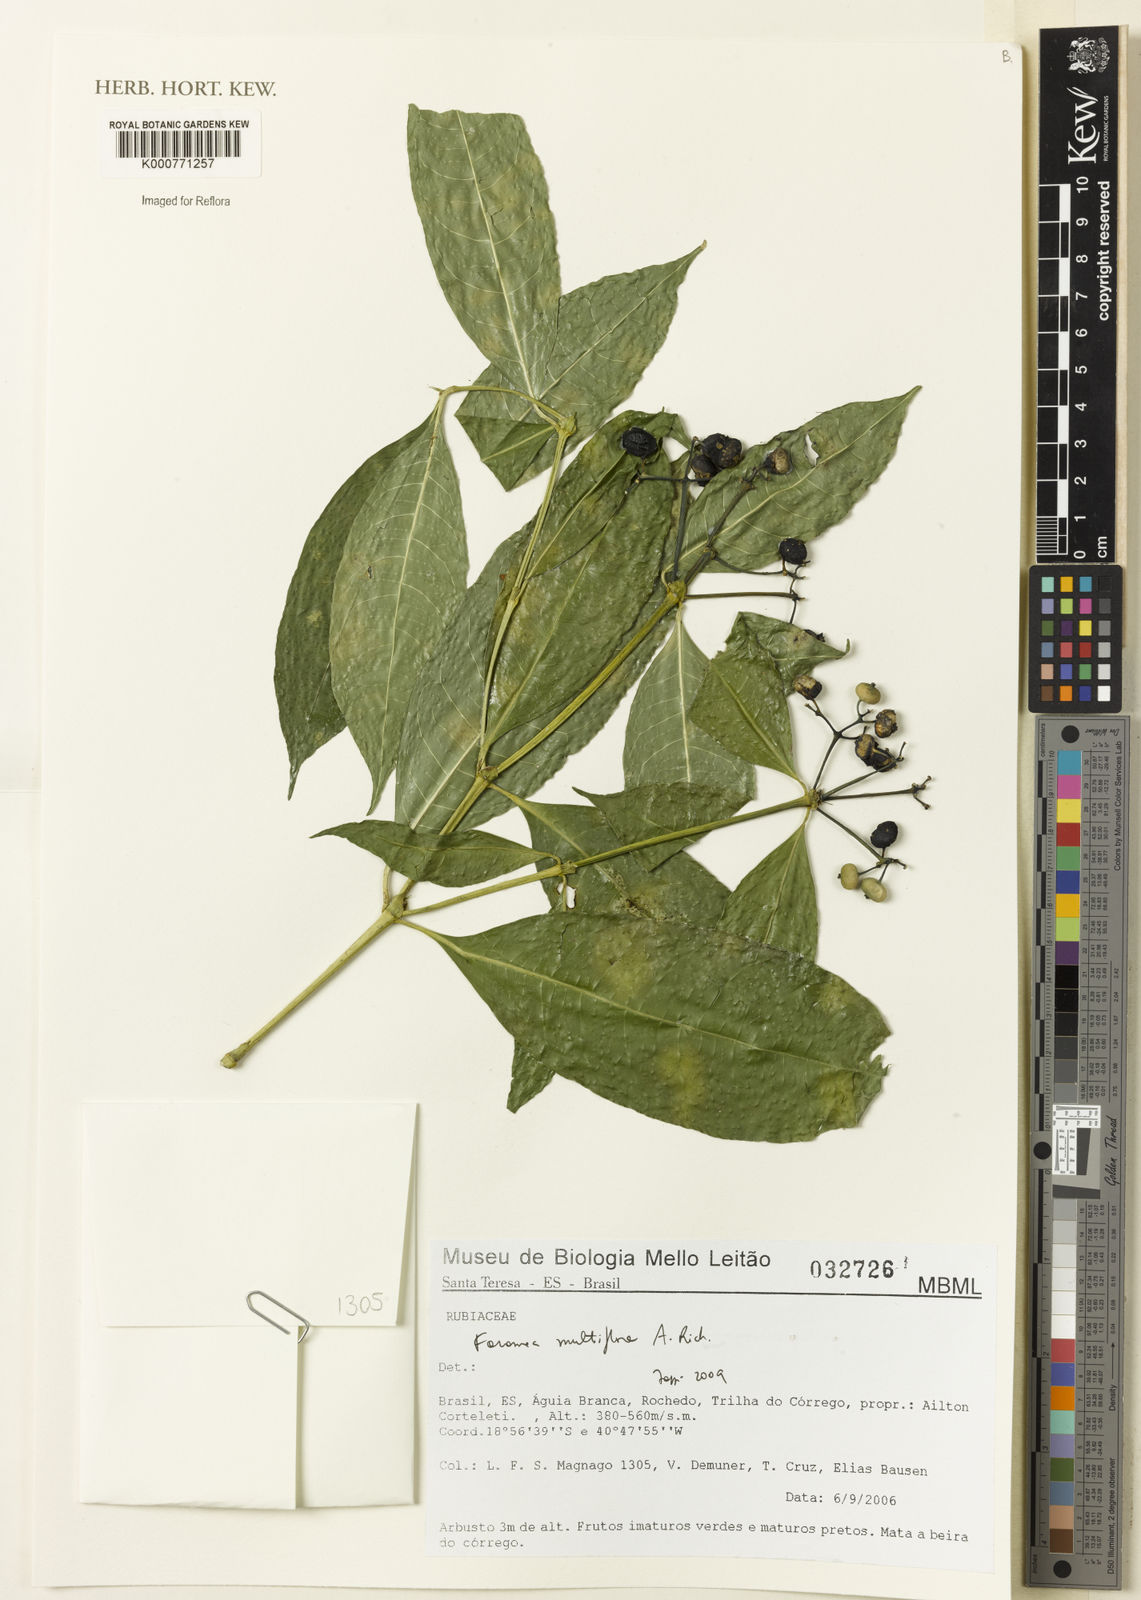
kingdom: Plantae
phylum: Tracheophyta
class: Magnoliopsida
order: Gentianales
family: Rubiaceae
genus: Faramea
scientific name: Faramea multiflora
